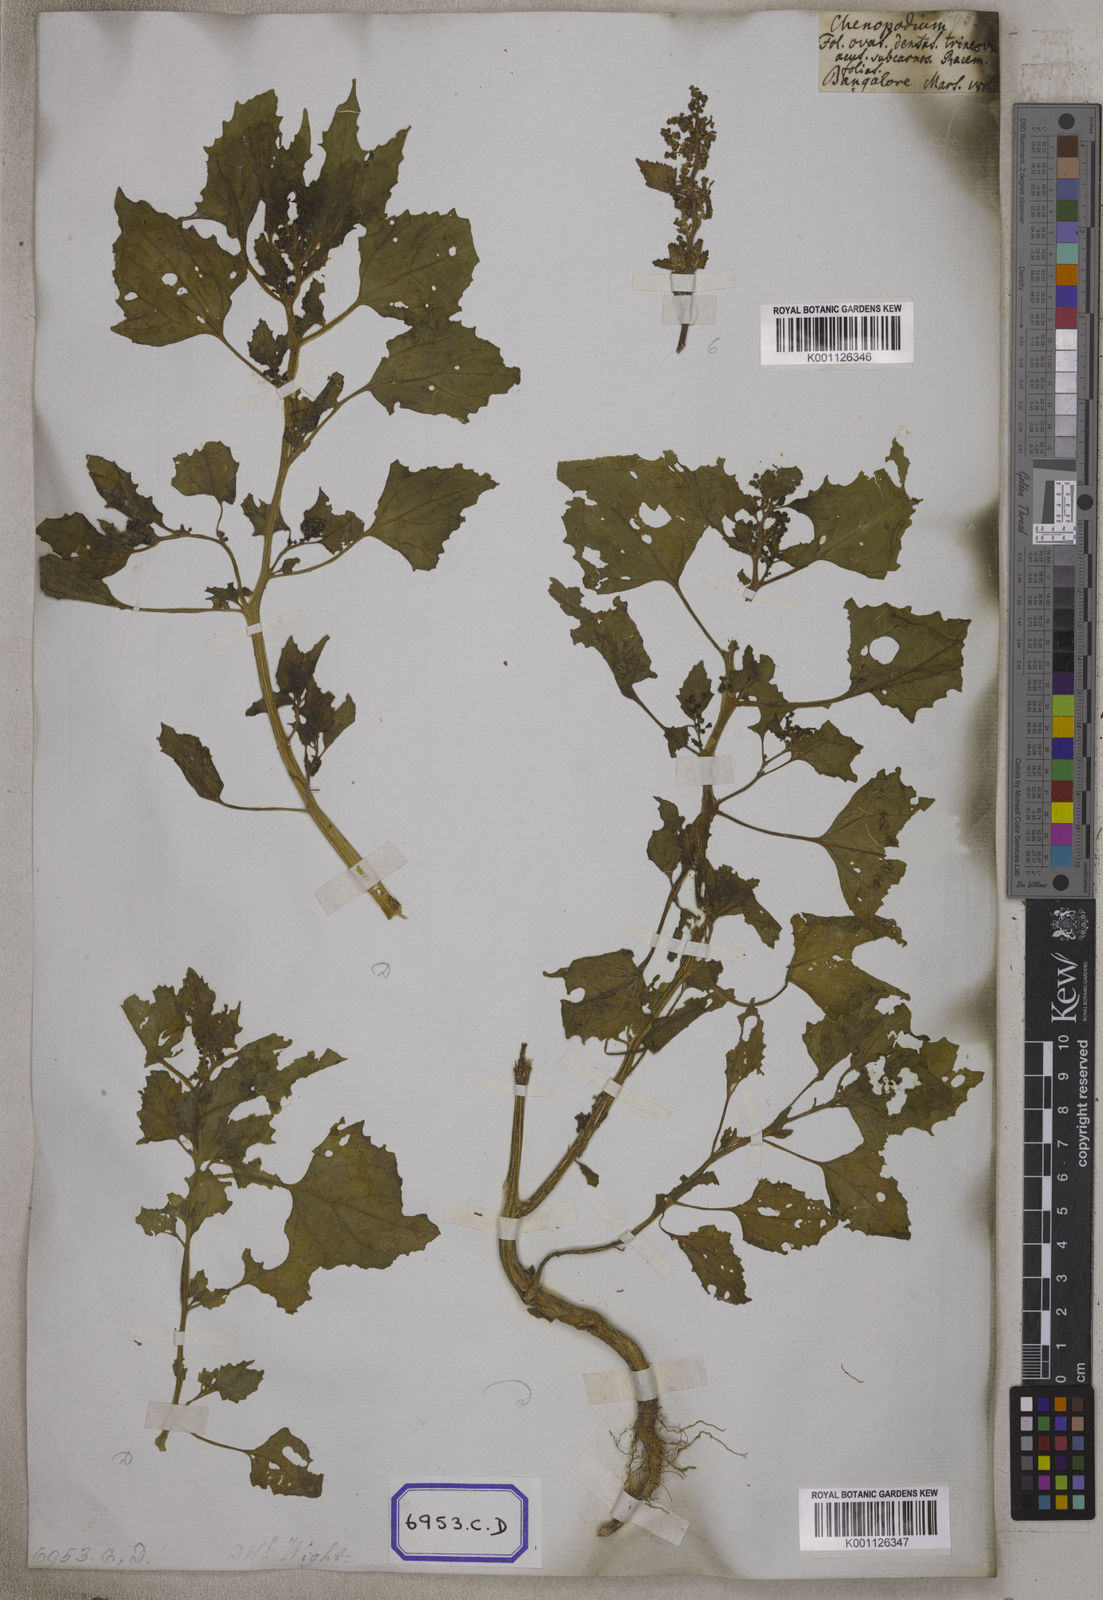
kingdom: Plantae
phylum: Tracheophyta
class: Magnoliopsida
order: Caryophyllales
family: Amaranthaceae
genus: Chenopodiastrum
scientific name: Chenopodiastrum murale
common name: Sowbane
